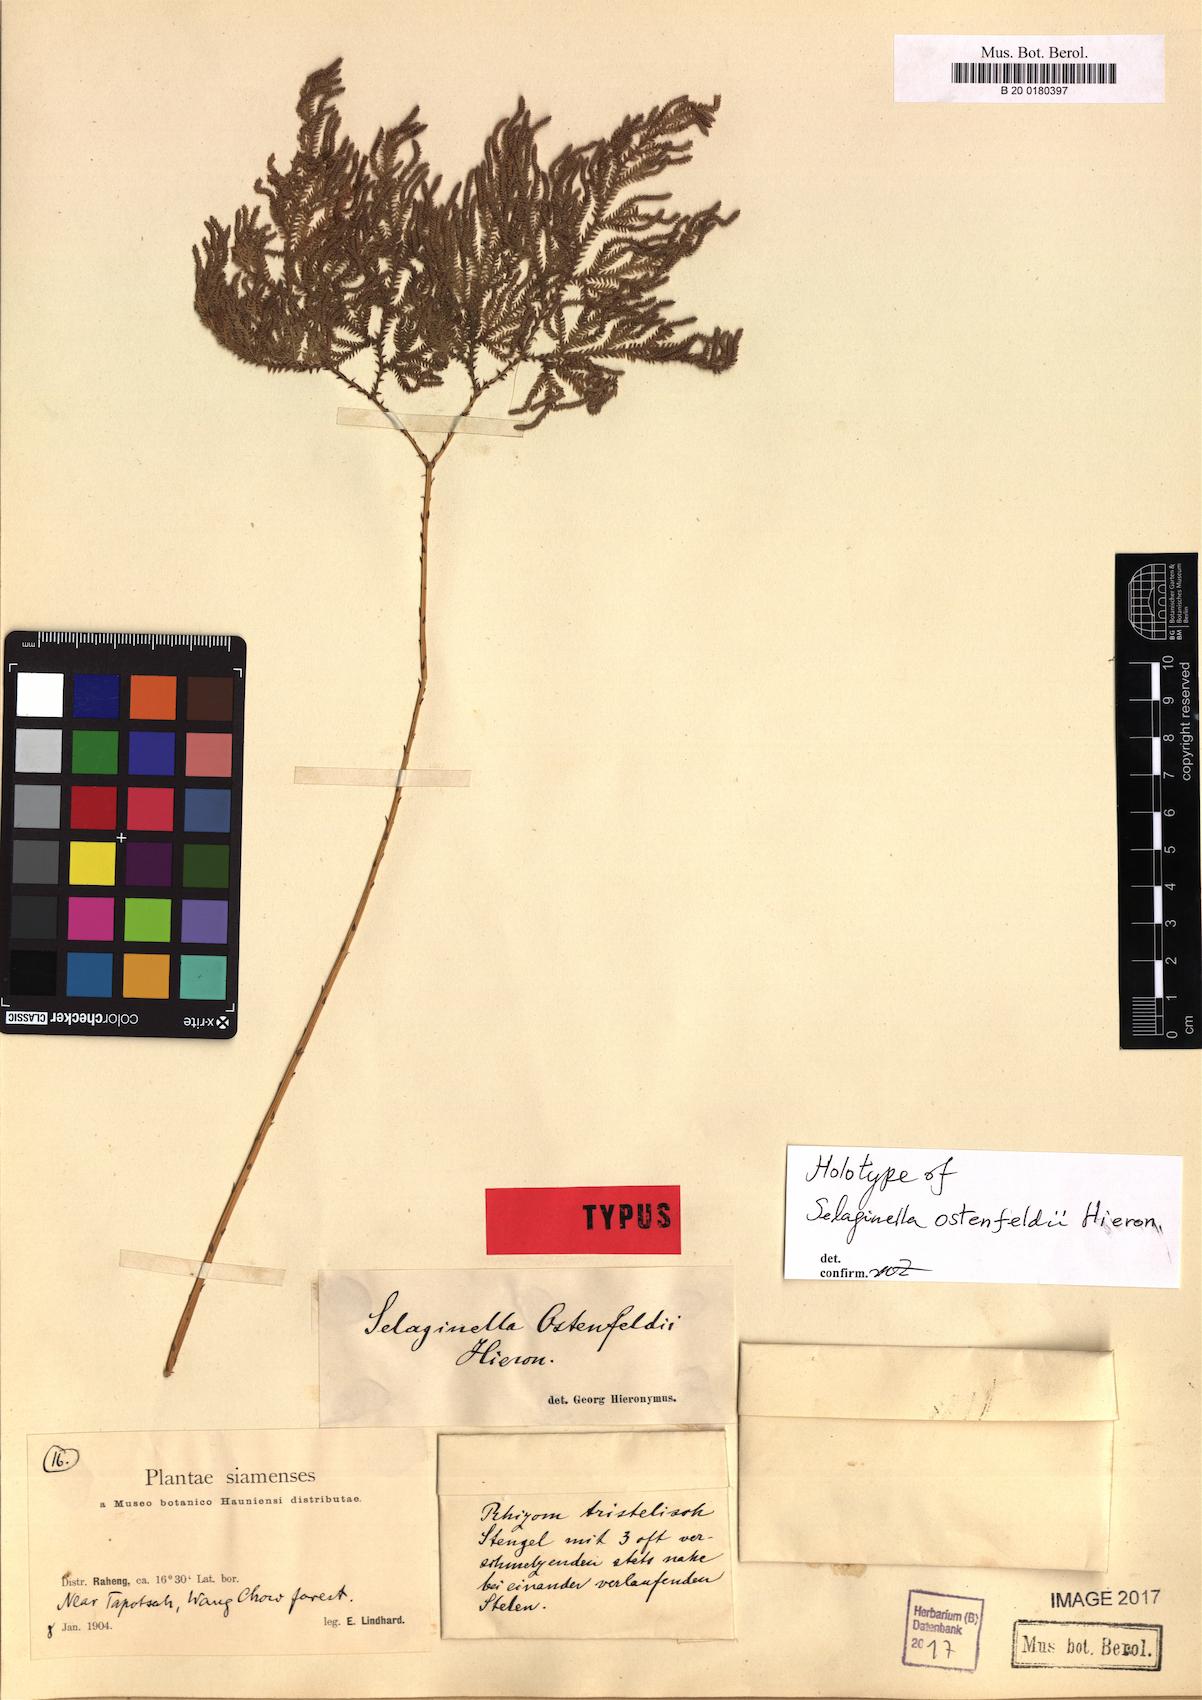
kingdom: Plantae
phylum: Tracheophyta
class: Lycopodiopsida
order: Selaginellales
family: Selaginellaceae
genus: Selaginella
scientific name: Selaginella ostenfeldii
